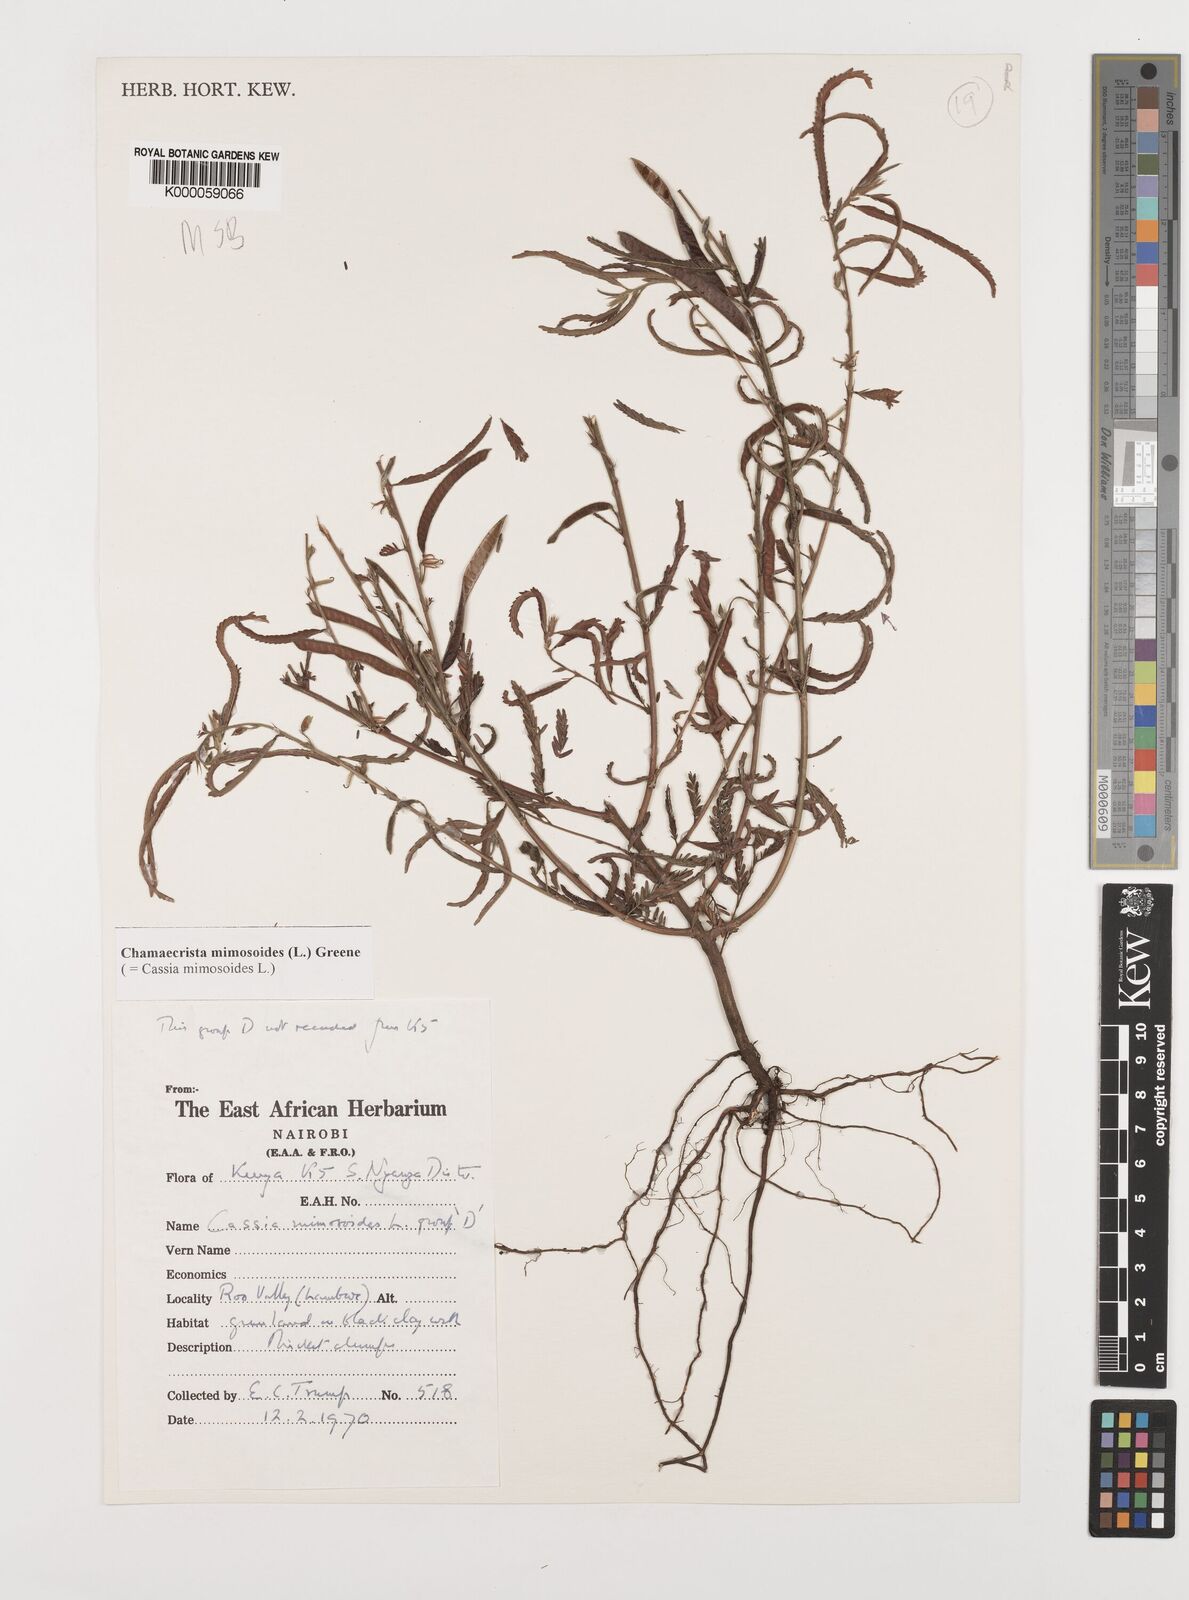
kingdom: Plantae
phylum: Tracheophyta
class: Magnoliopsida
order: Fabales
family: Fabaceae
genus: Chamaecrista
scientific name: Chamaecrista mimosoides
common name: Fish-bone cassia
